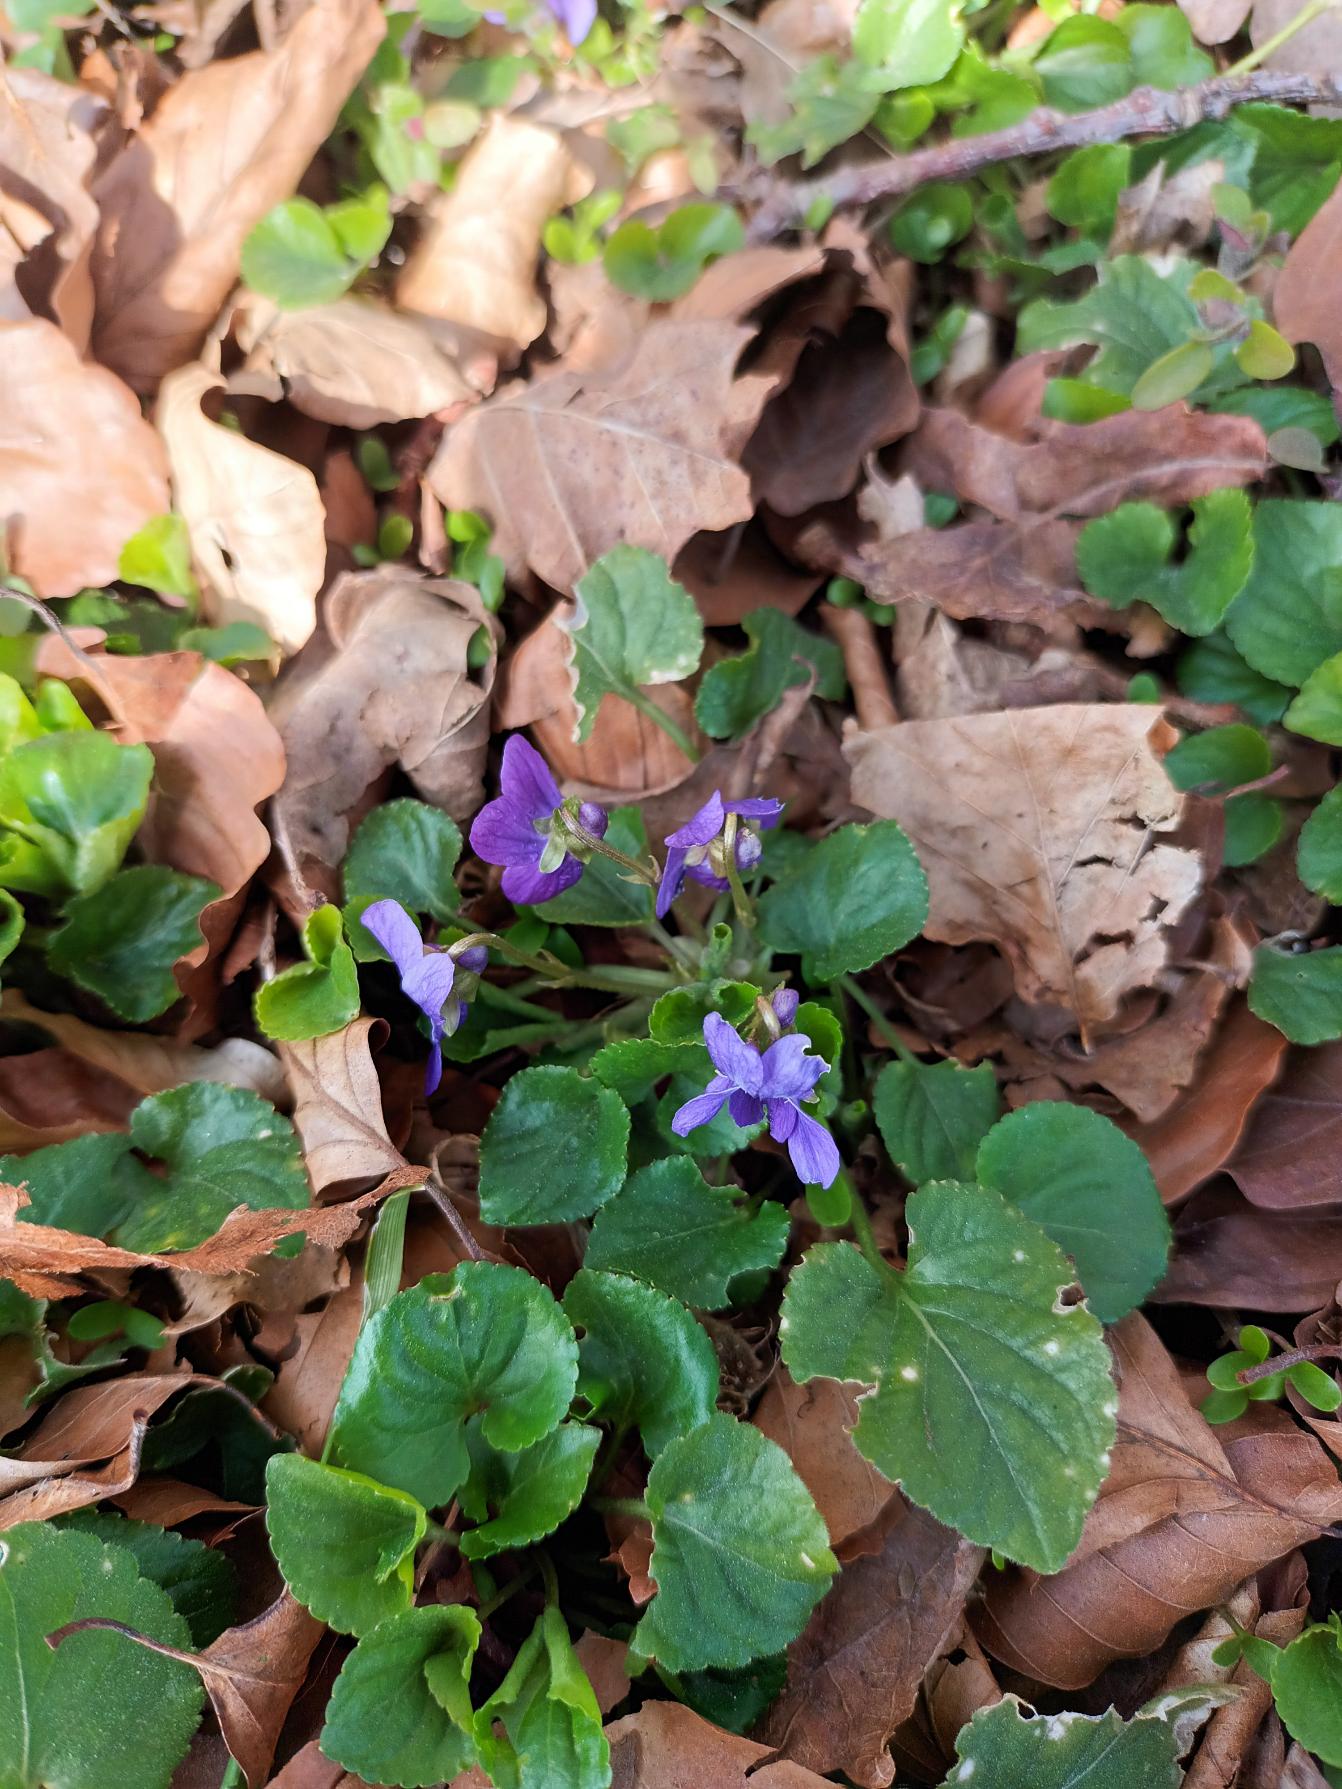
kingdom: Plantae
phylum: Tracheophyta
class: Magnoliopsida
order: Malpighiales
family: Violaceae
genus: Viola
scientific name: Viola odorata
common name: Marts-viol
